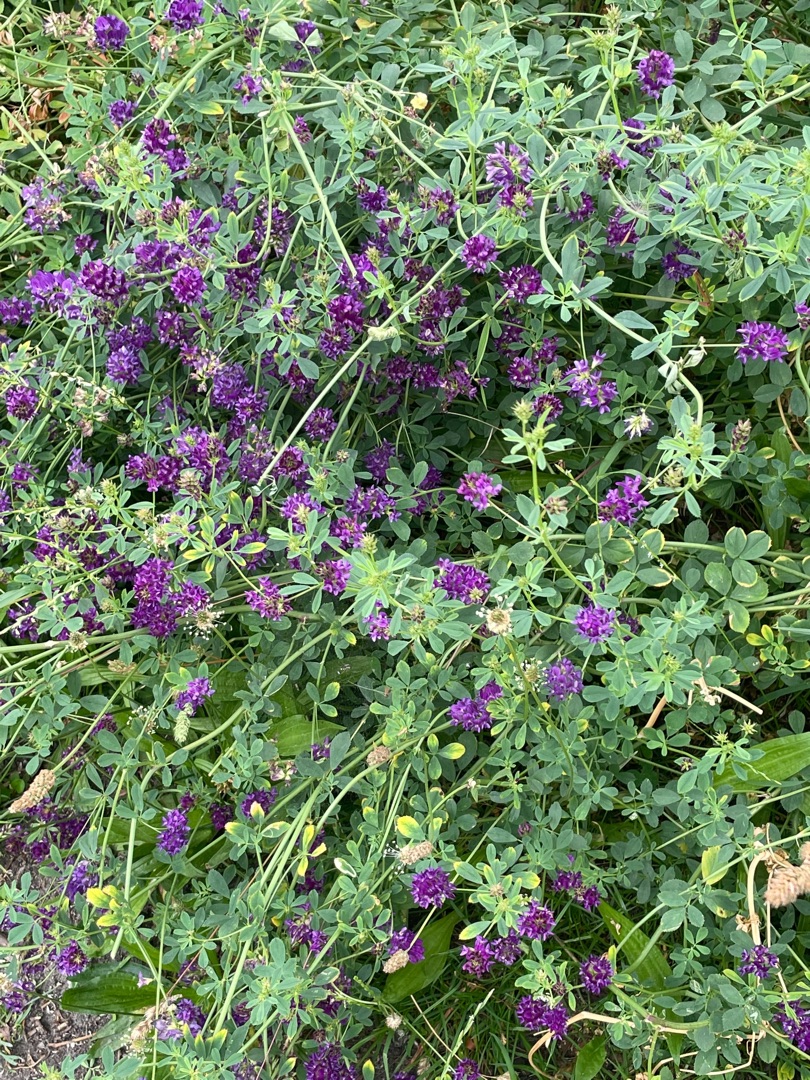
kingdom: Plantae
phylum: Tracheophyta
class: Magnoliopsida
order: Fabales
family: Fabaceae
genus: Medicago
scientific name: Medicago sativa
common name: Lucerne
